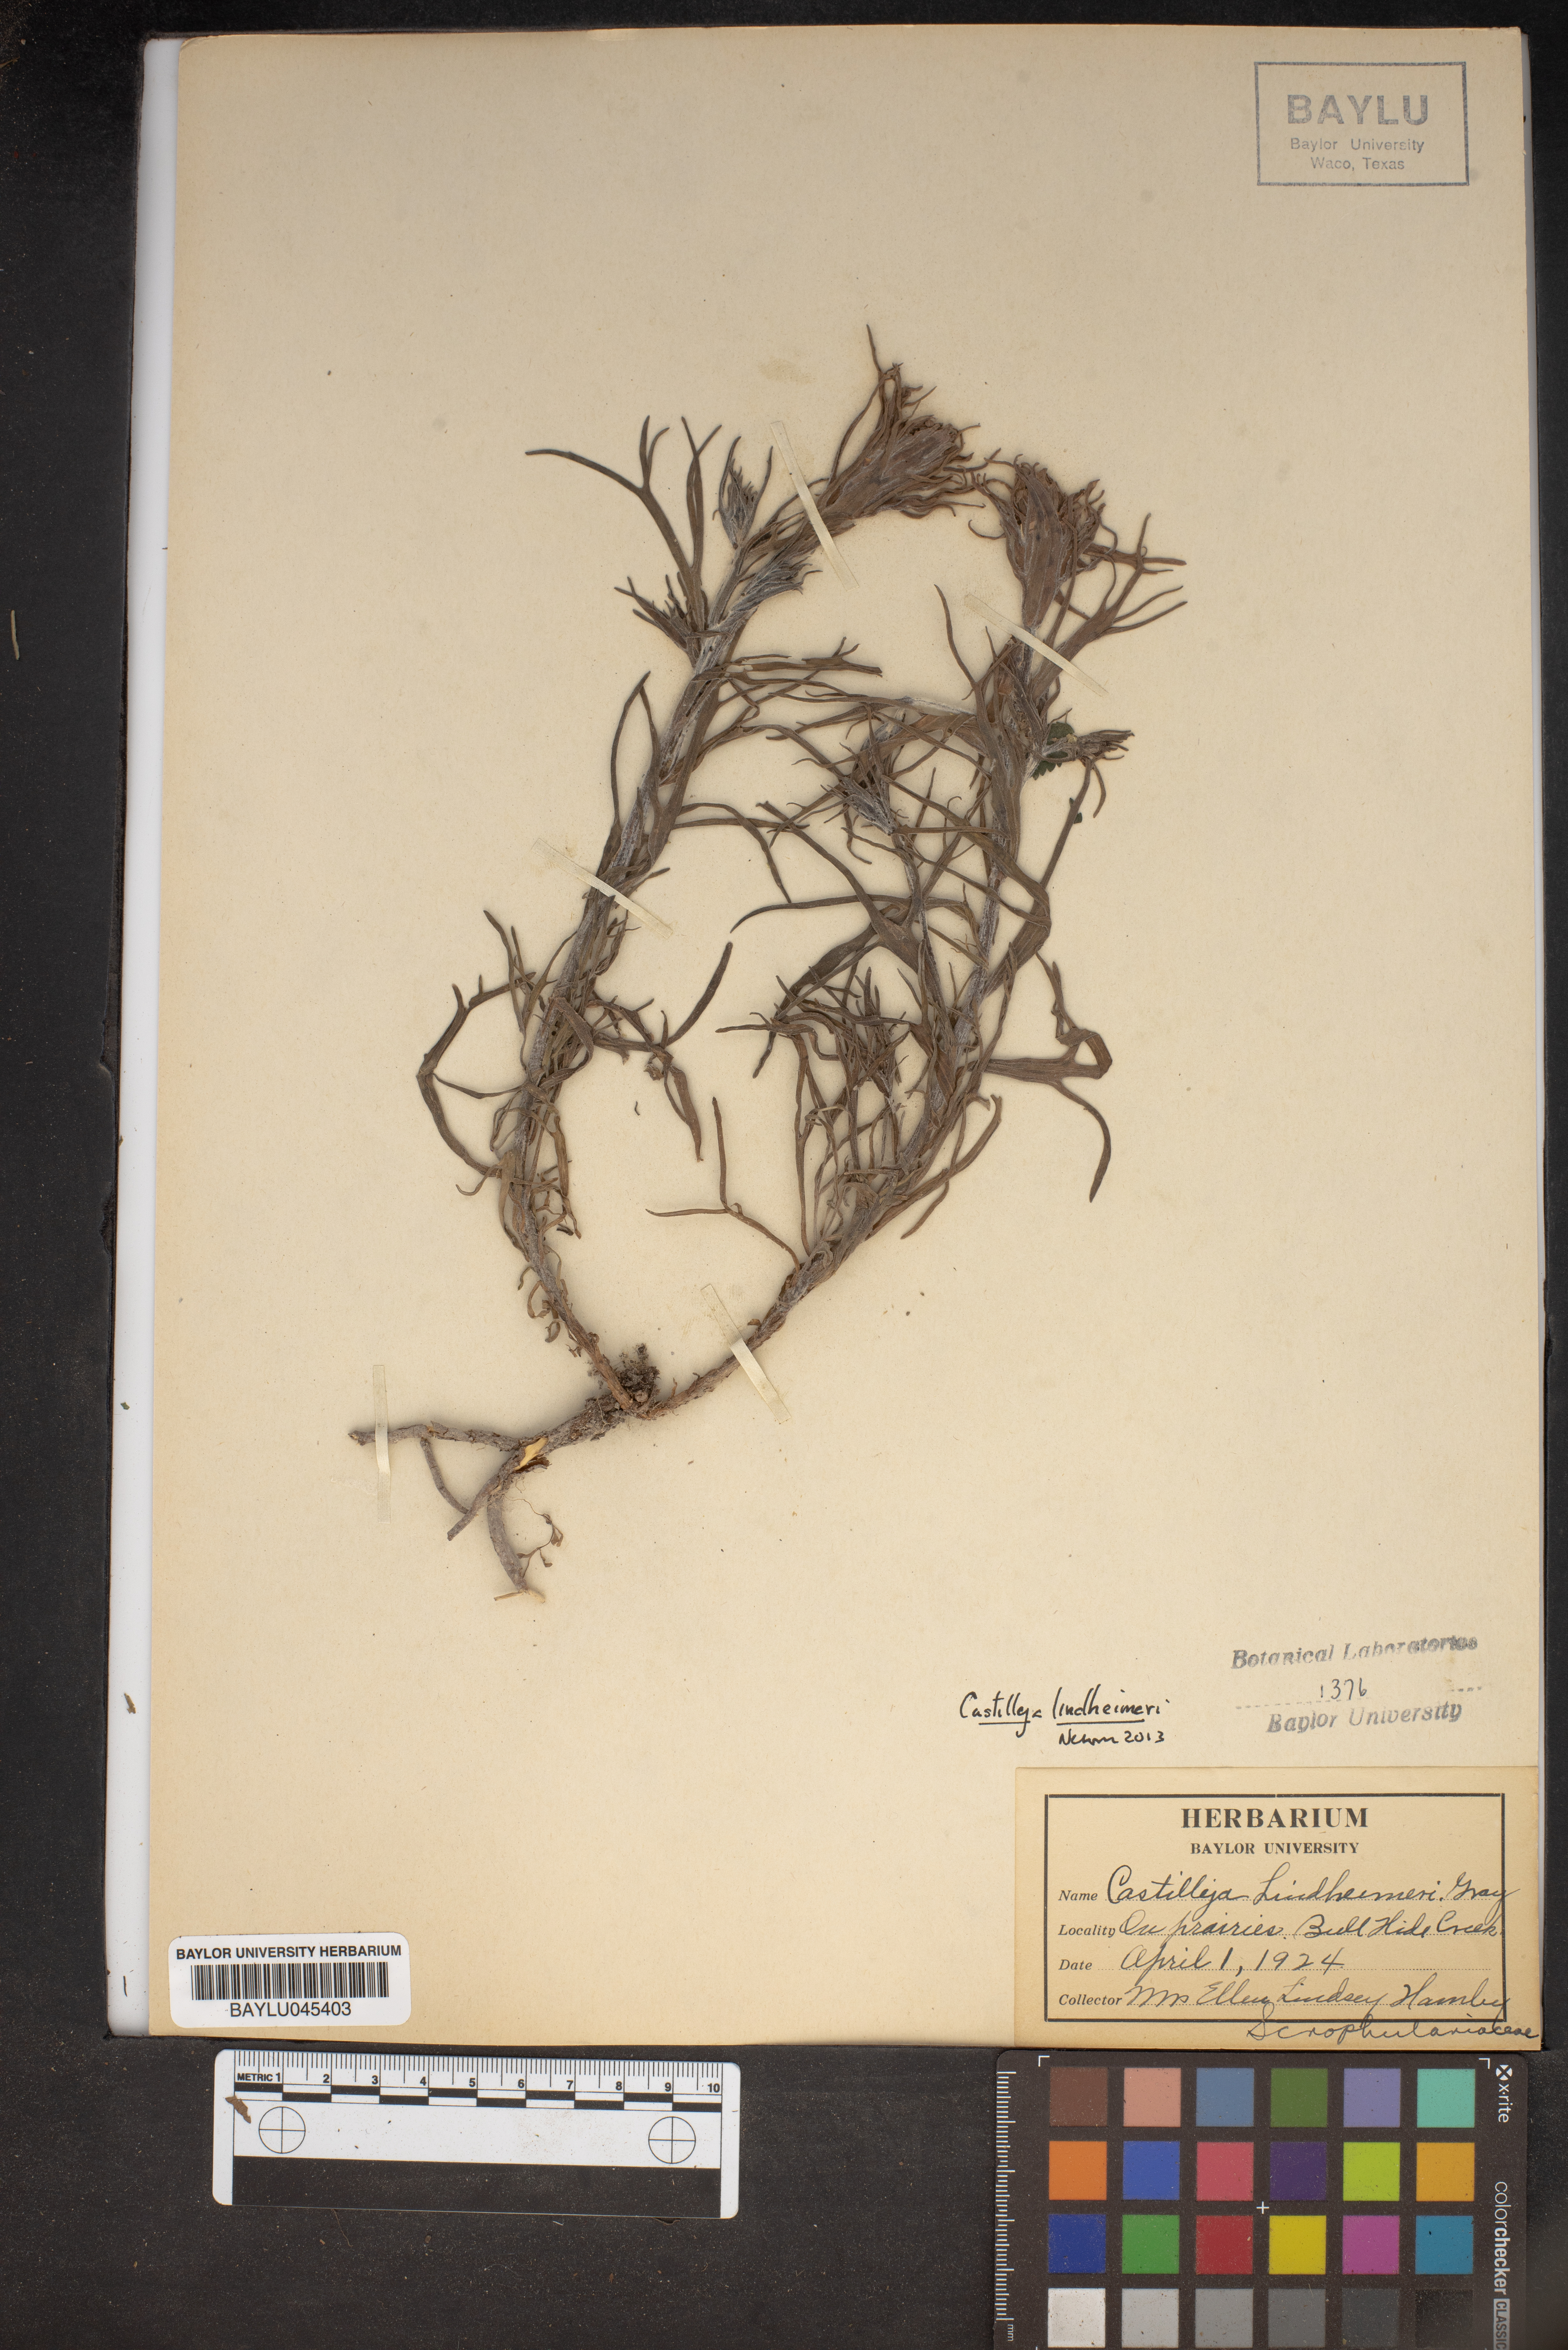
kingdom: Plantae
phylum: Tracheophyta
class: Magnoliopsida
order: Lamiales
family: Orobanchaceae
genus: Castilleja
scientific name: Castilleja lindheimeri
